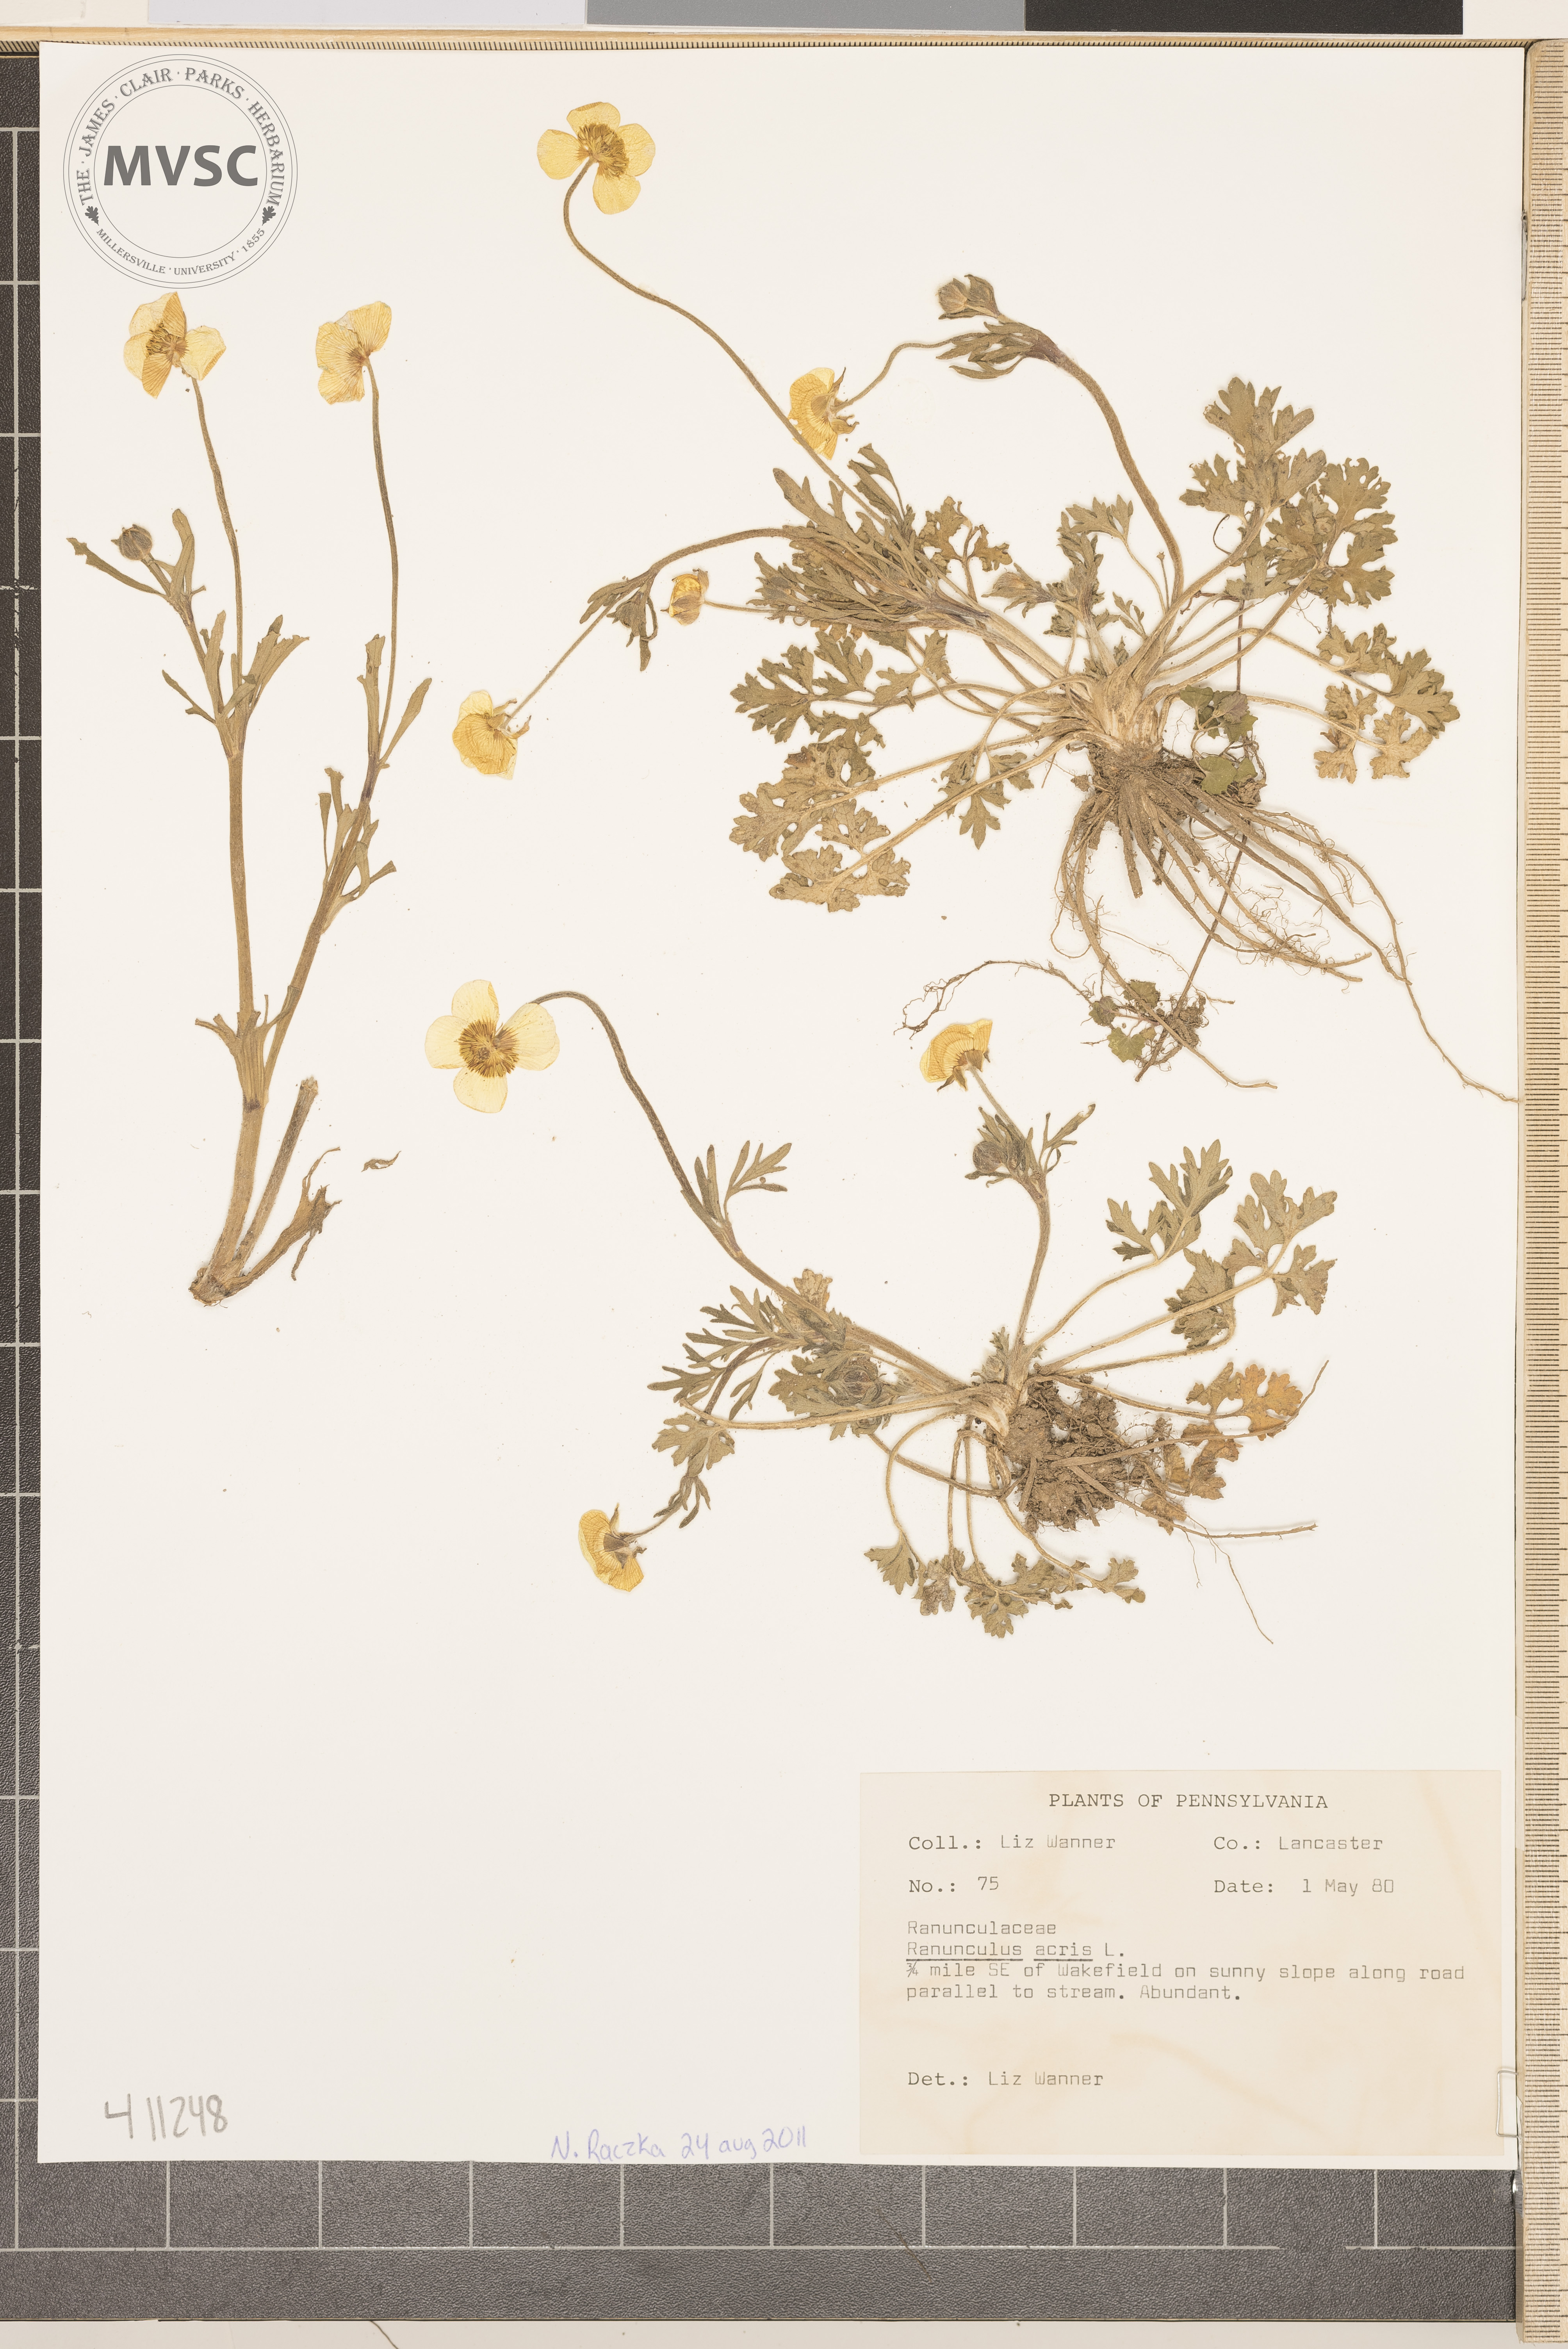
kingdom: Plantae
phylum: Tracheophyta
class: Magnoliopsida
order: Ranunculales
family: Ranunculaceae
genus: Ranunculus
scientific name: Ranunculus acris
